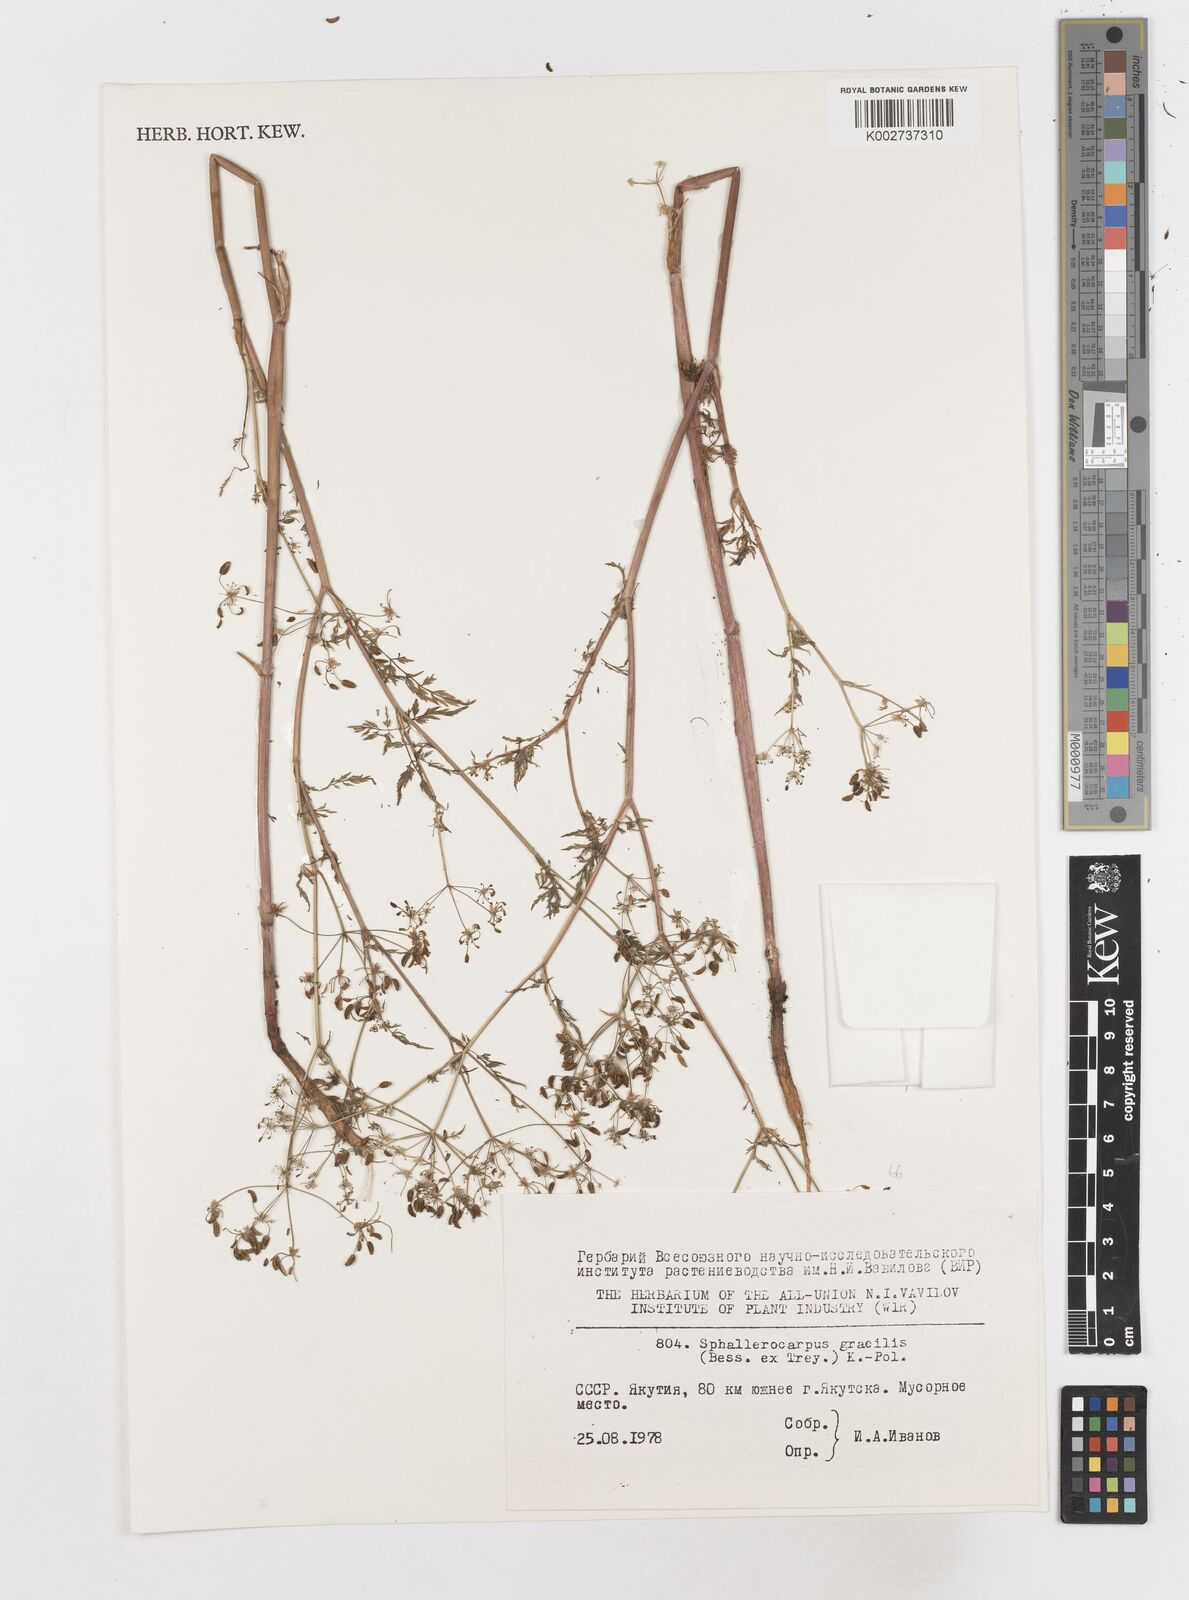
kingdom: Plantae
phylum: Tracheophyta
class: Magnoliopsida
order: Apiales
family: Apiaceae
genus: Sphallerocarpus
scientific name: Sphallerocarpus gracilis
